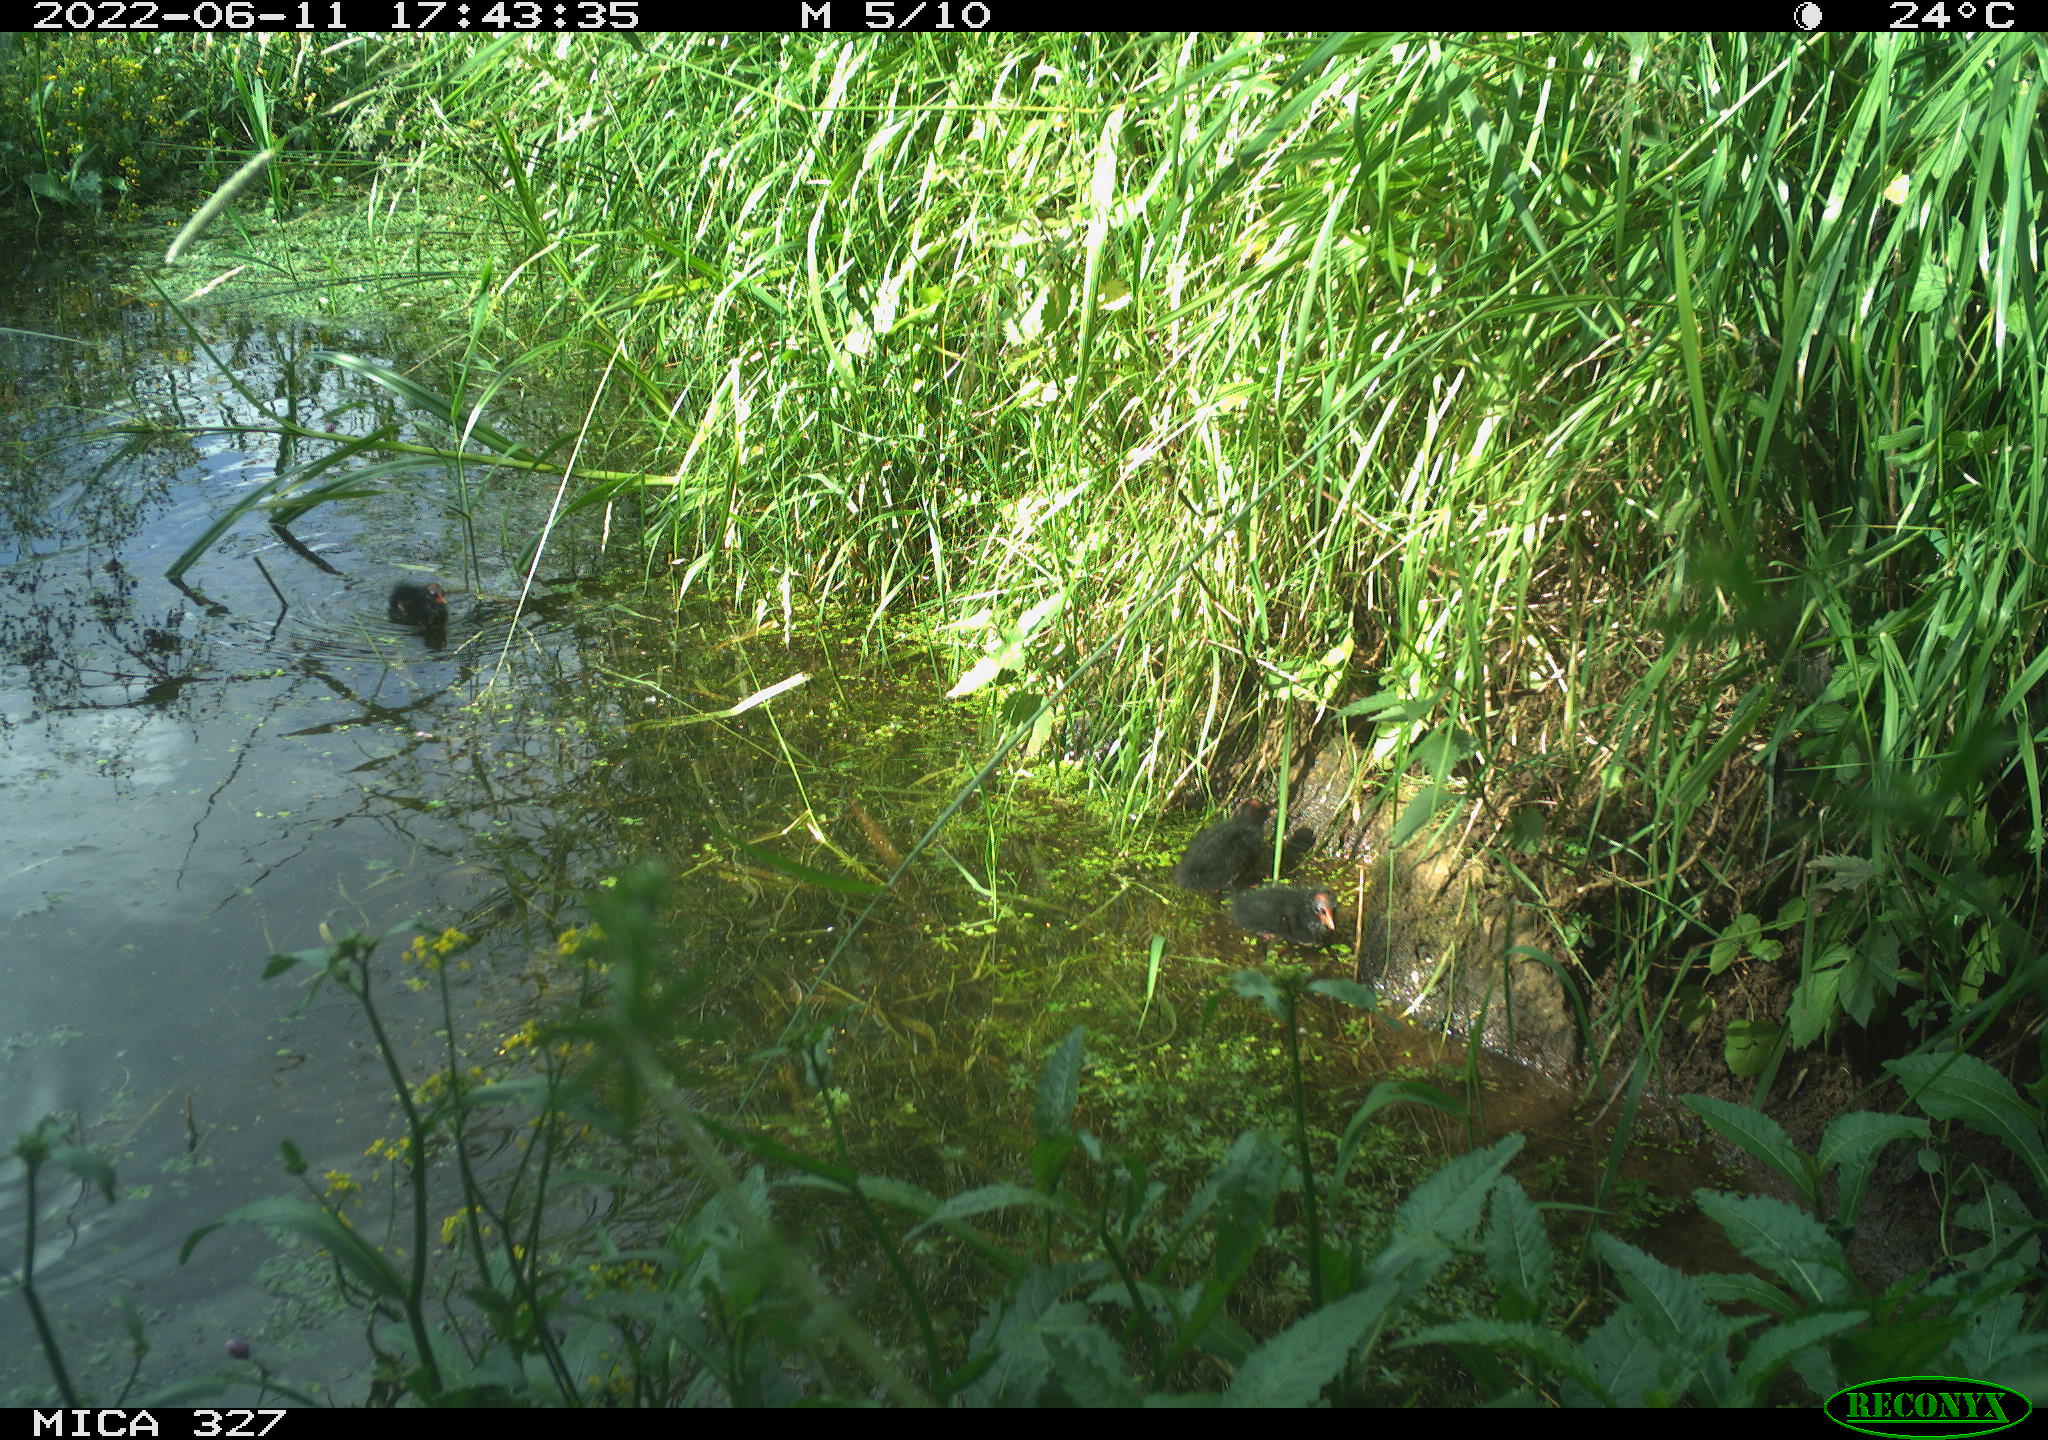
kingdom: Animalia
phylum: Chordata
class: Aves
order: Gruiformes
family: Rallidae
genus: Gallinula
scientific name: Gallinula chloropus
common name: Common moorhen
